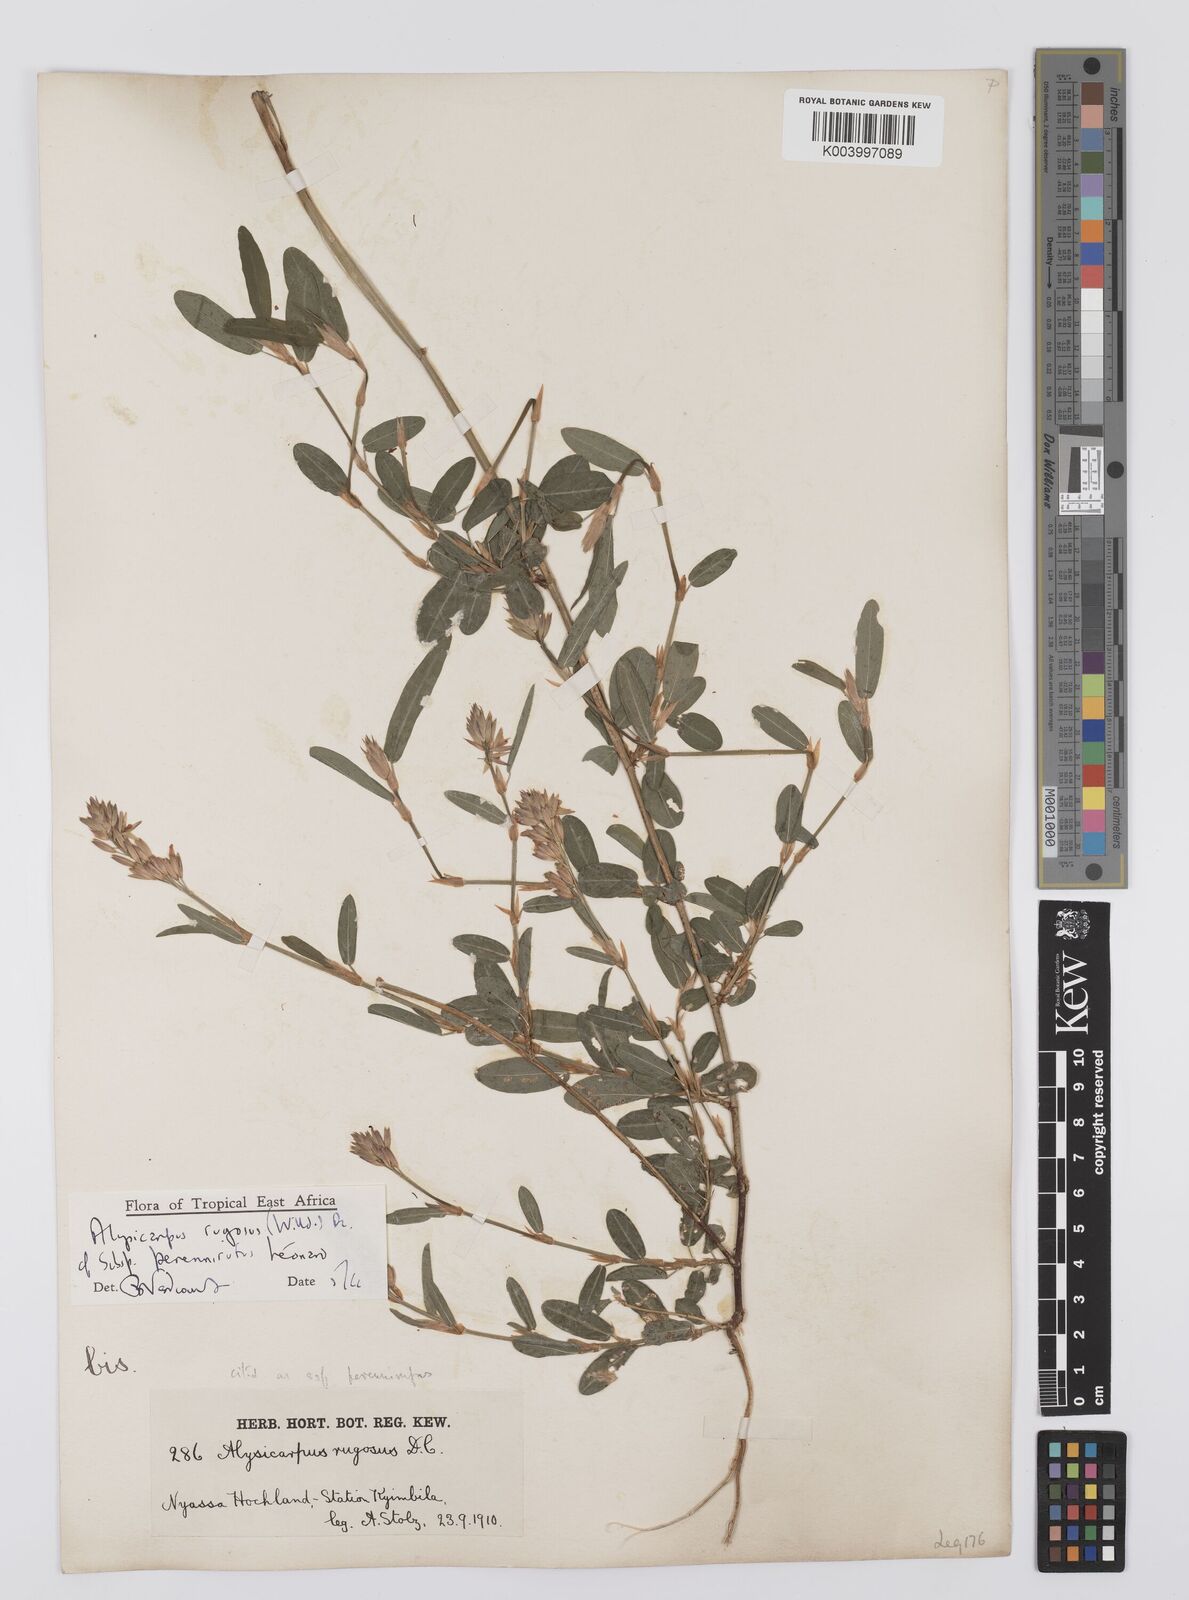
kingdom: Plantae
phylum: Tracheophyta
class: Magnoliopsida
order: Fabales
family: Fabaceae
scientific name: Fabaceae
